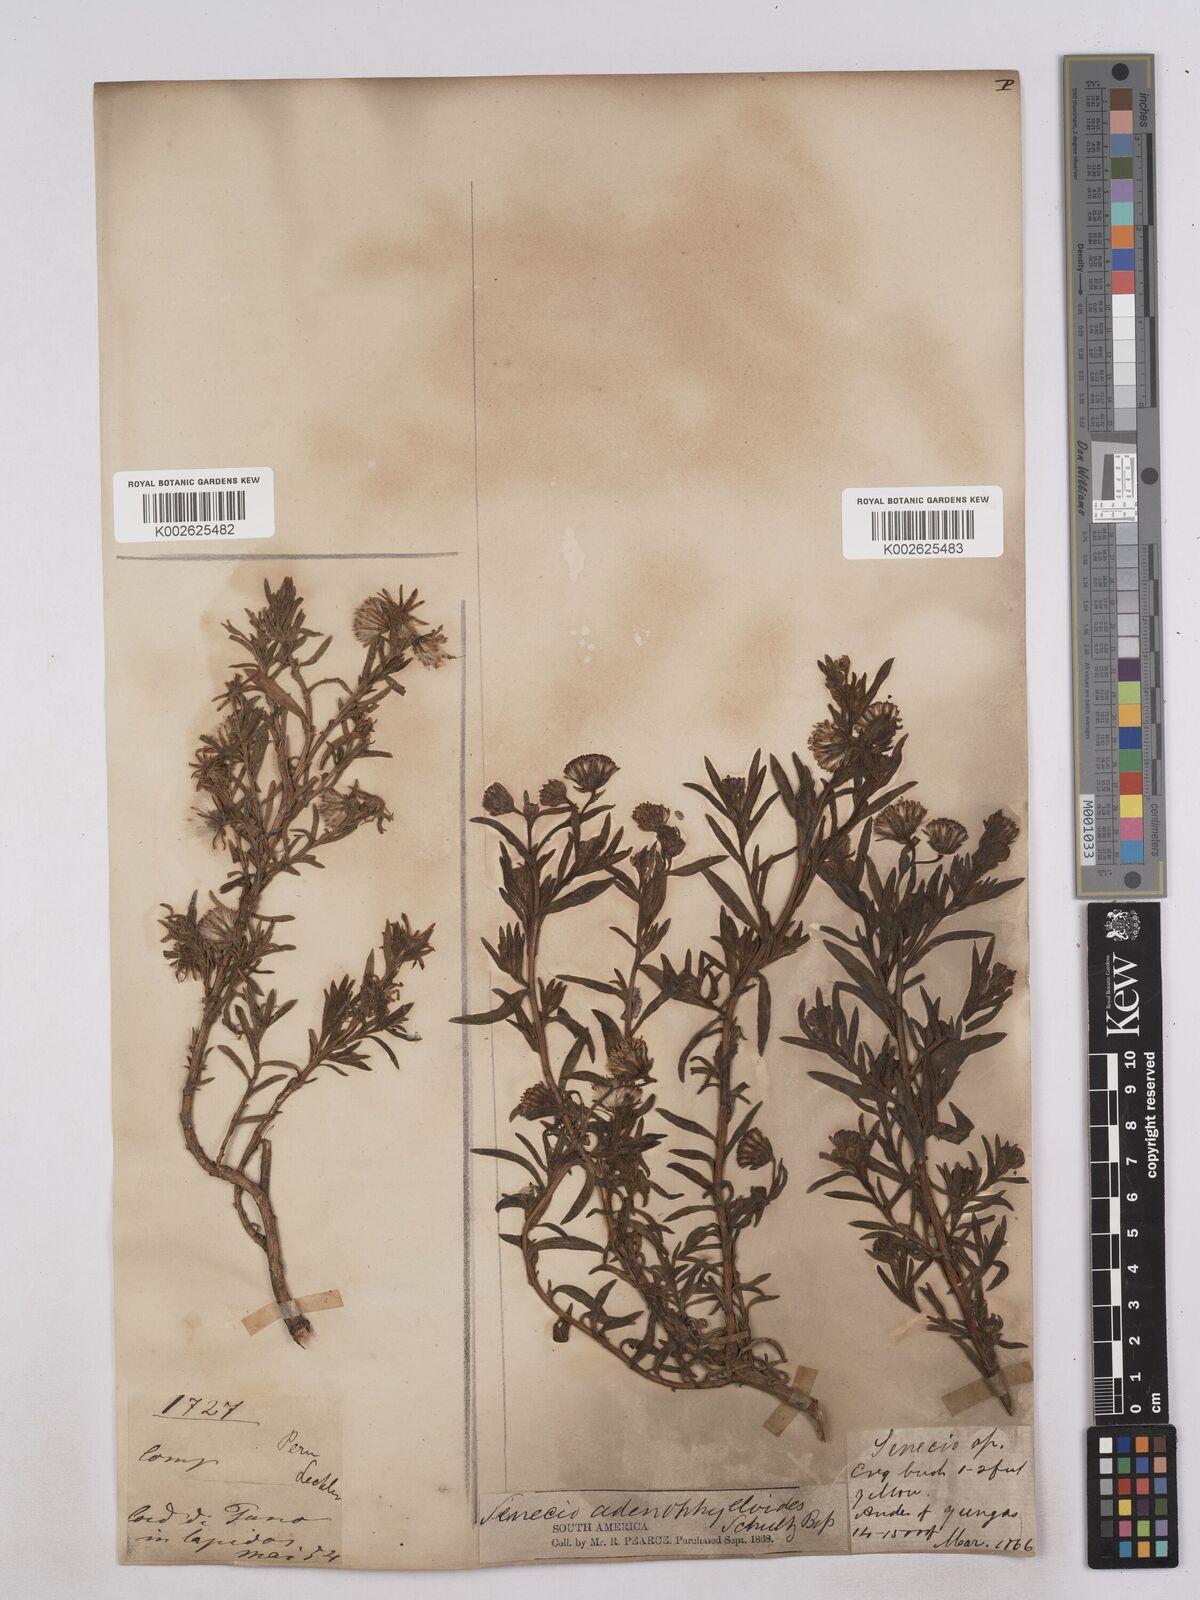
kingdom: Plantae
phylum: Tracheophyta
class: Magnoliopsida
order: Asterales
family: Asteraceae
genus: Culcitium
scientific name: Culcitium canescens
